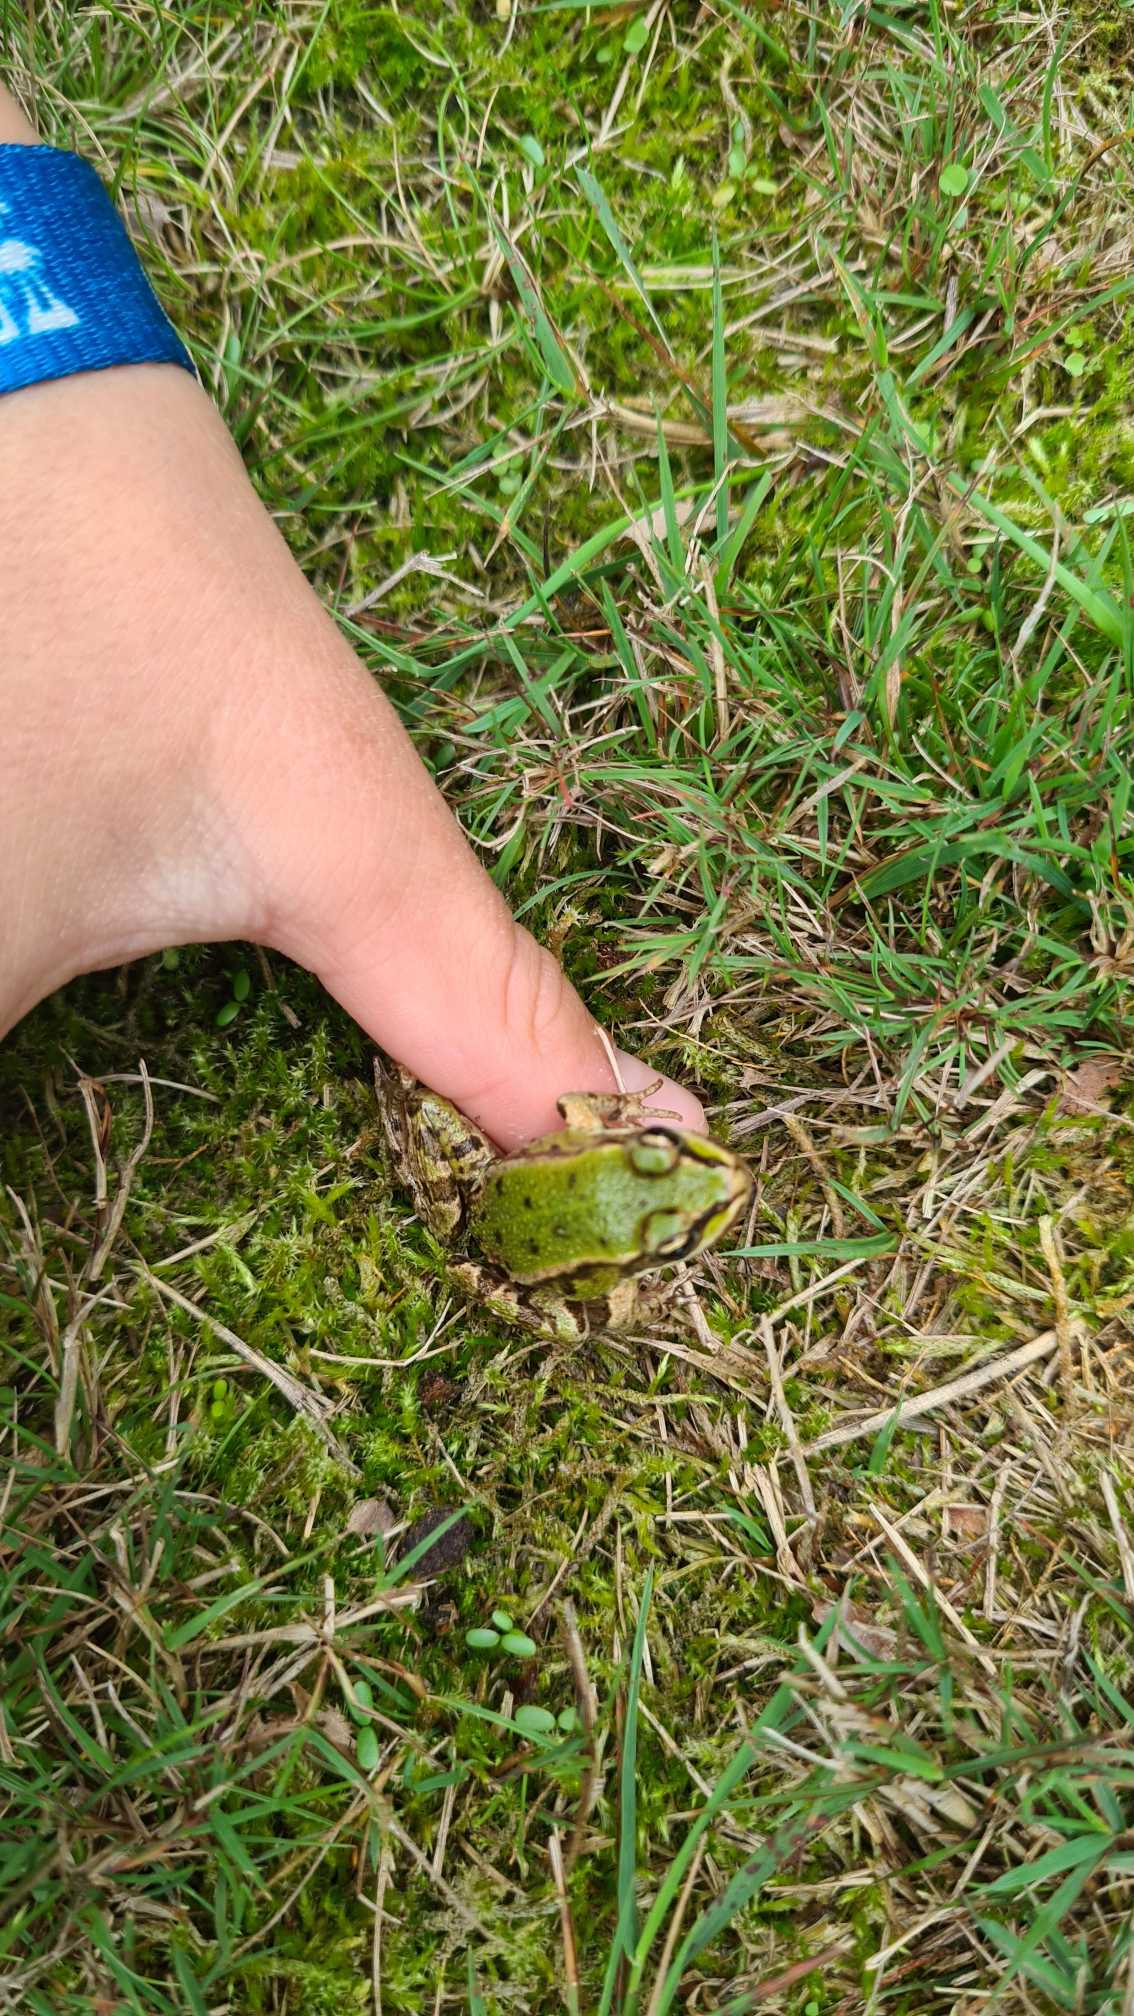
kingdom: Animalia
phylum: Chordata
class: Amphibia
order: Anura
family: Ranidae
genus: Pelophylax
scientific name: Pelophylax lessonae
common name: Grøn frø
